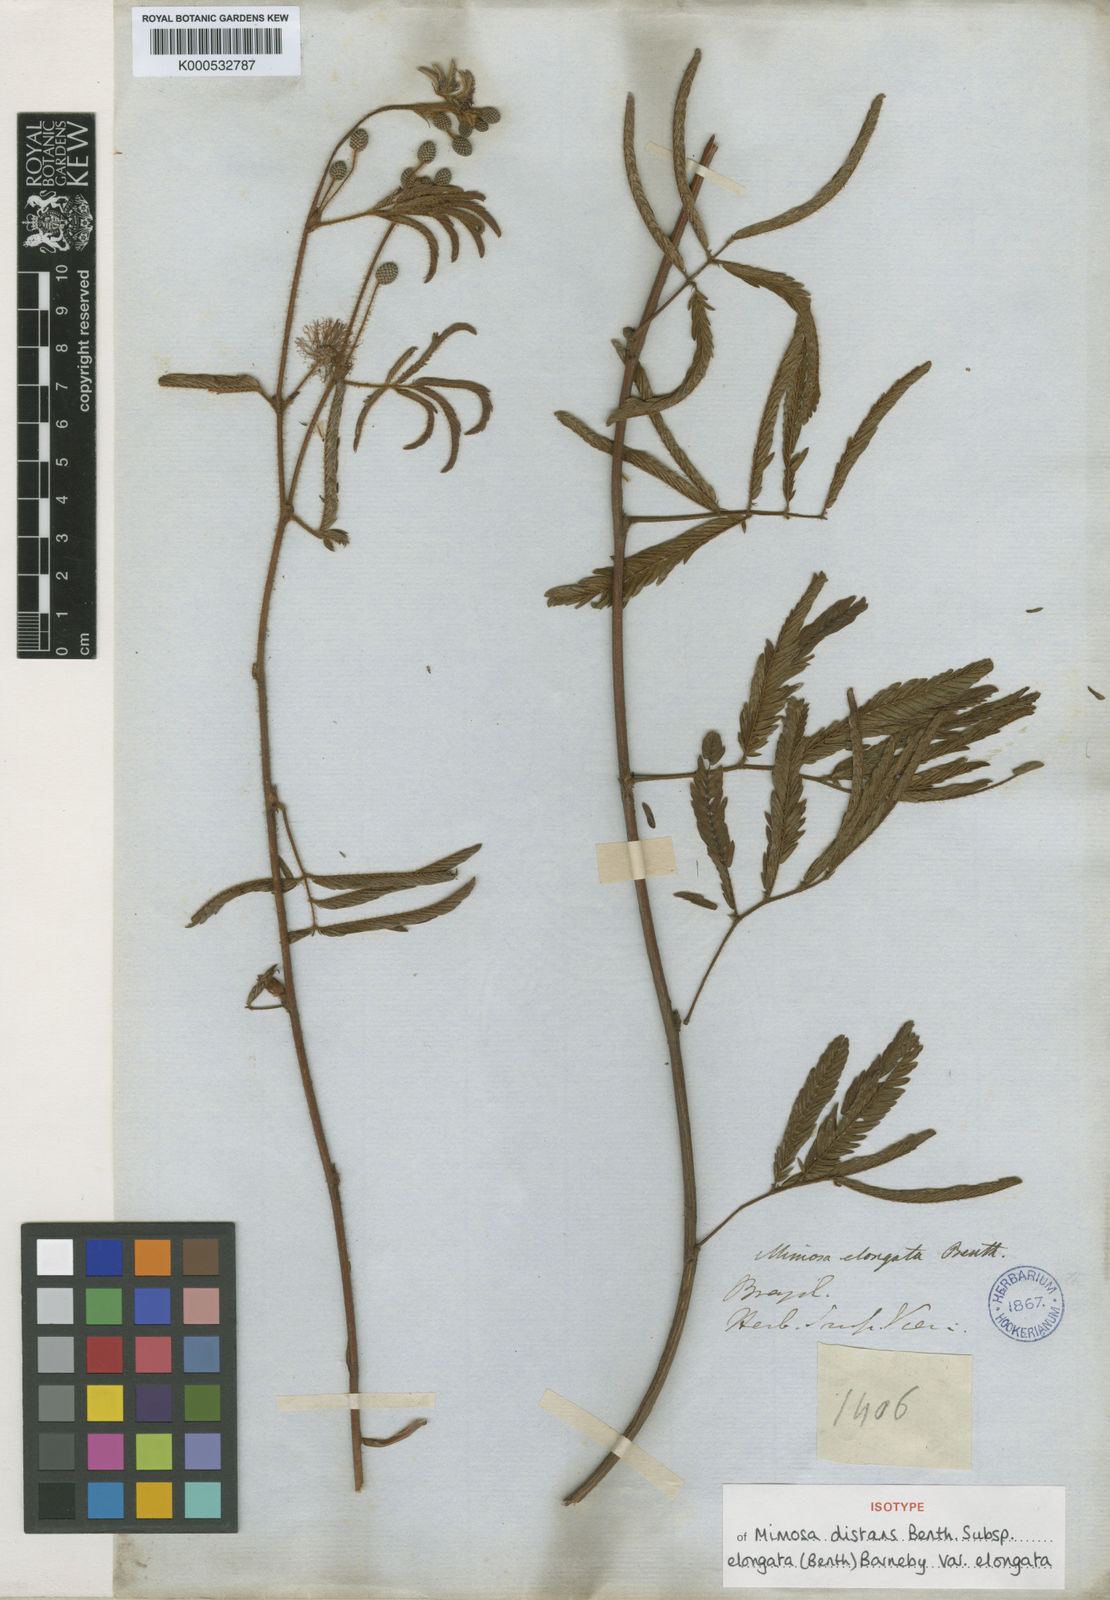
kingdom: Plantae
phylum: Tracheophyta
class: Magnoliopsida
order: Fabales
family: Fabaceae
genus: Mimosa
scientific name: Mimosa distans
